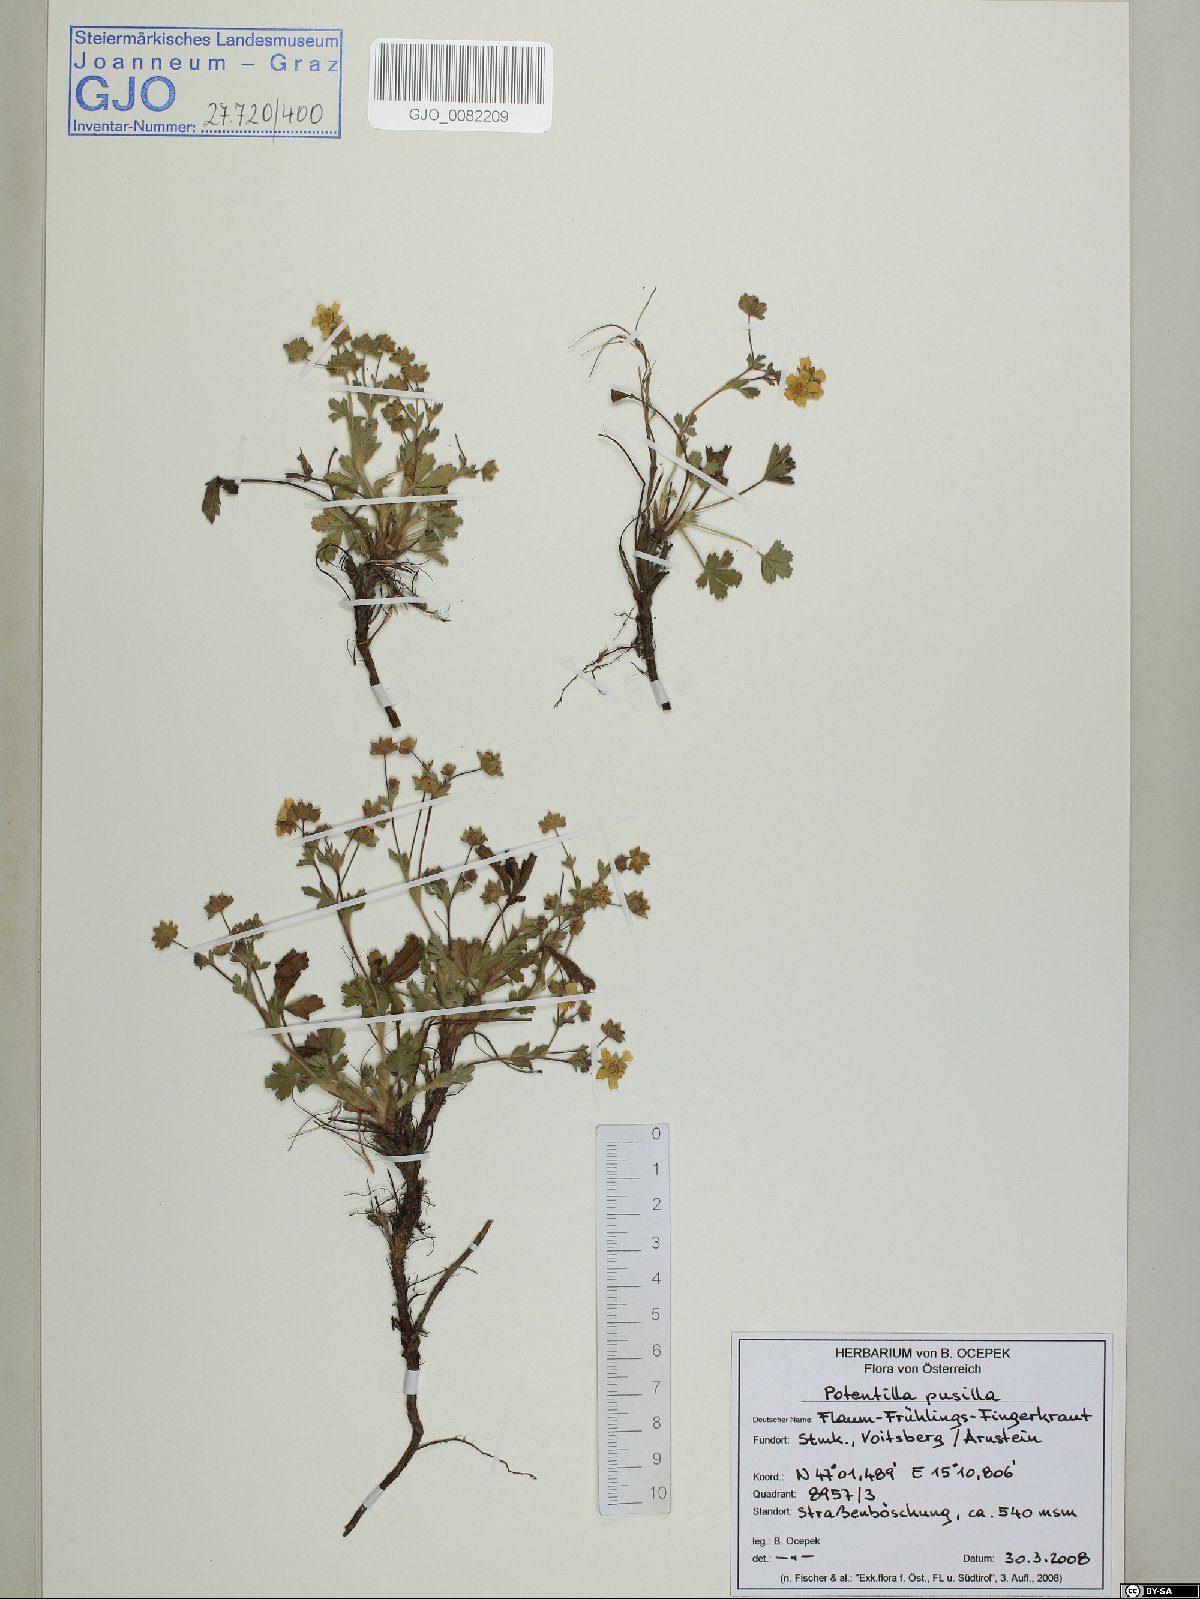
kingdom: Plantae
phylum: Tracheophyta
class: Magnoliopsida
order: Rosales
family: Rosaceae
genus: Potentilla
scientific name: Potentilla pusilla
